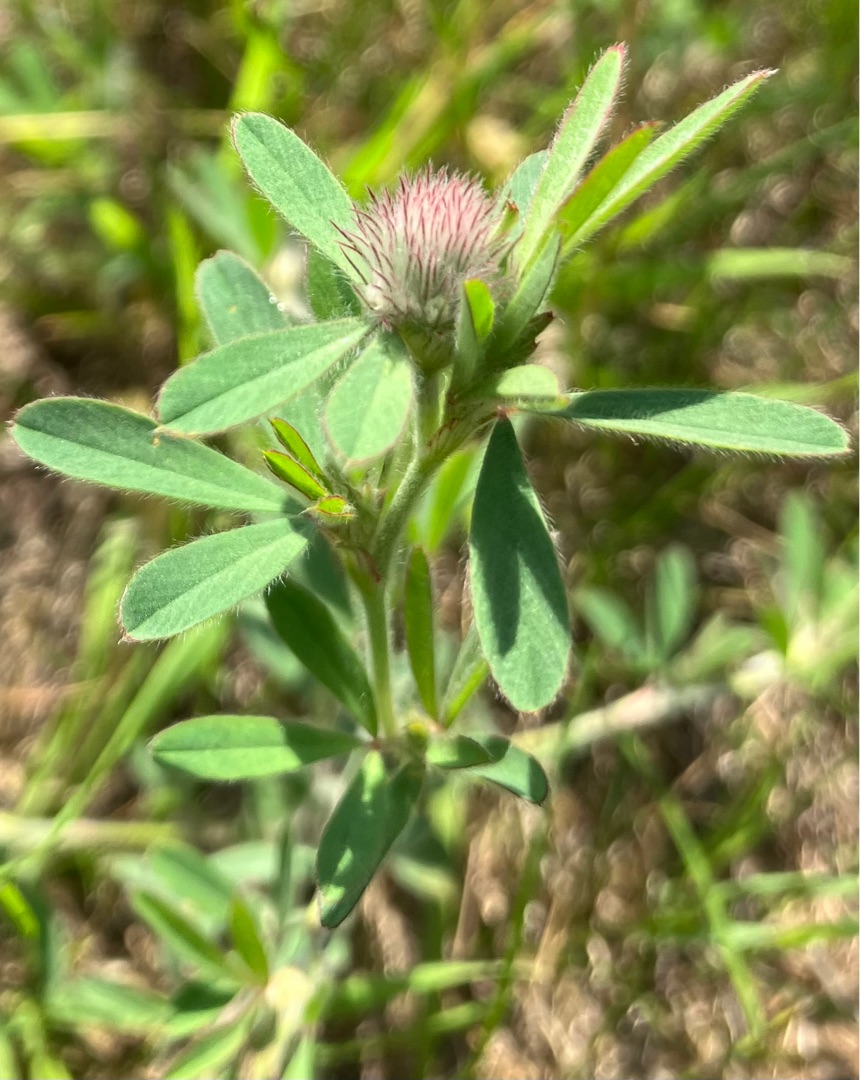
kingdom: Plantae
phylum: Tracheophyta
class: Magnoliopsida
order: Fabales
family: Fabaceae
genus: Trifolium
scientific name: Trifolium arvense
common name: Hare-kløver
